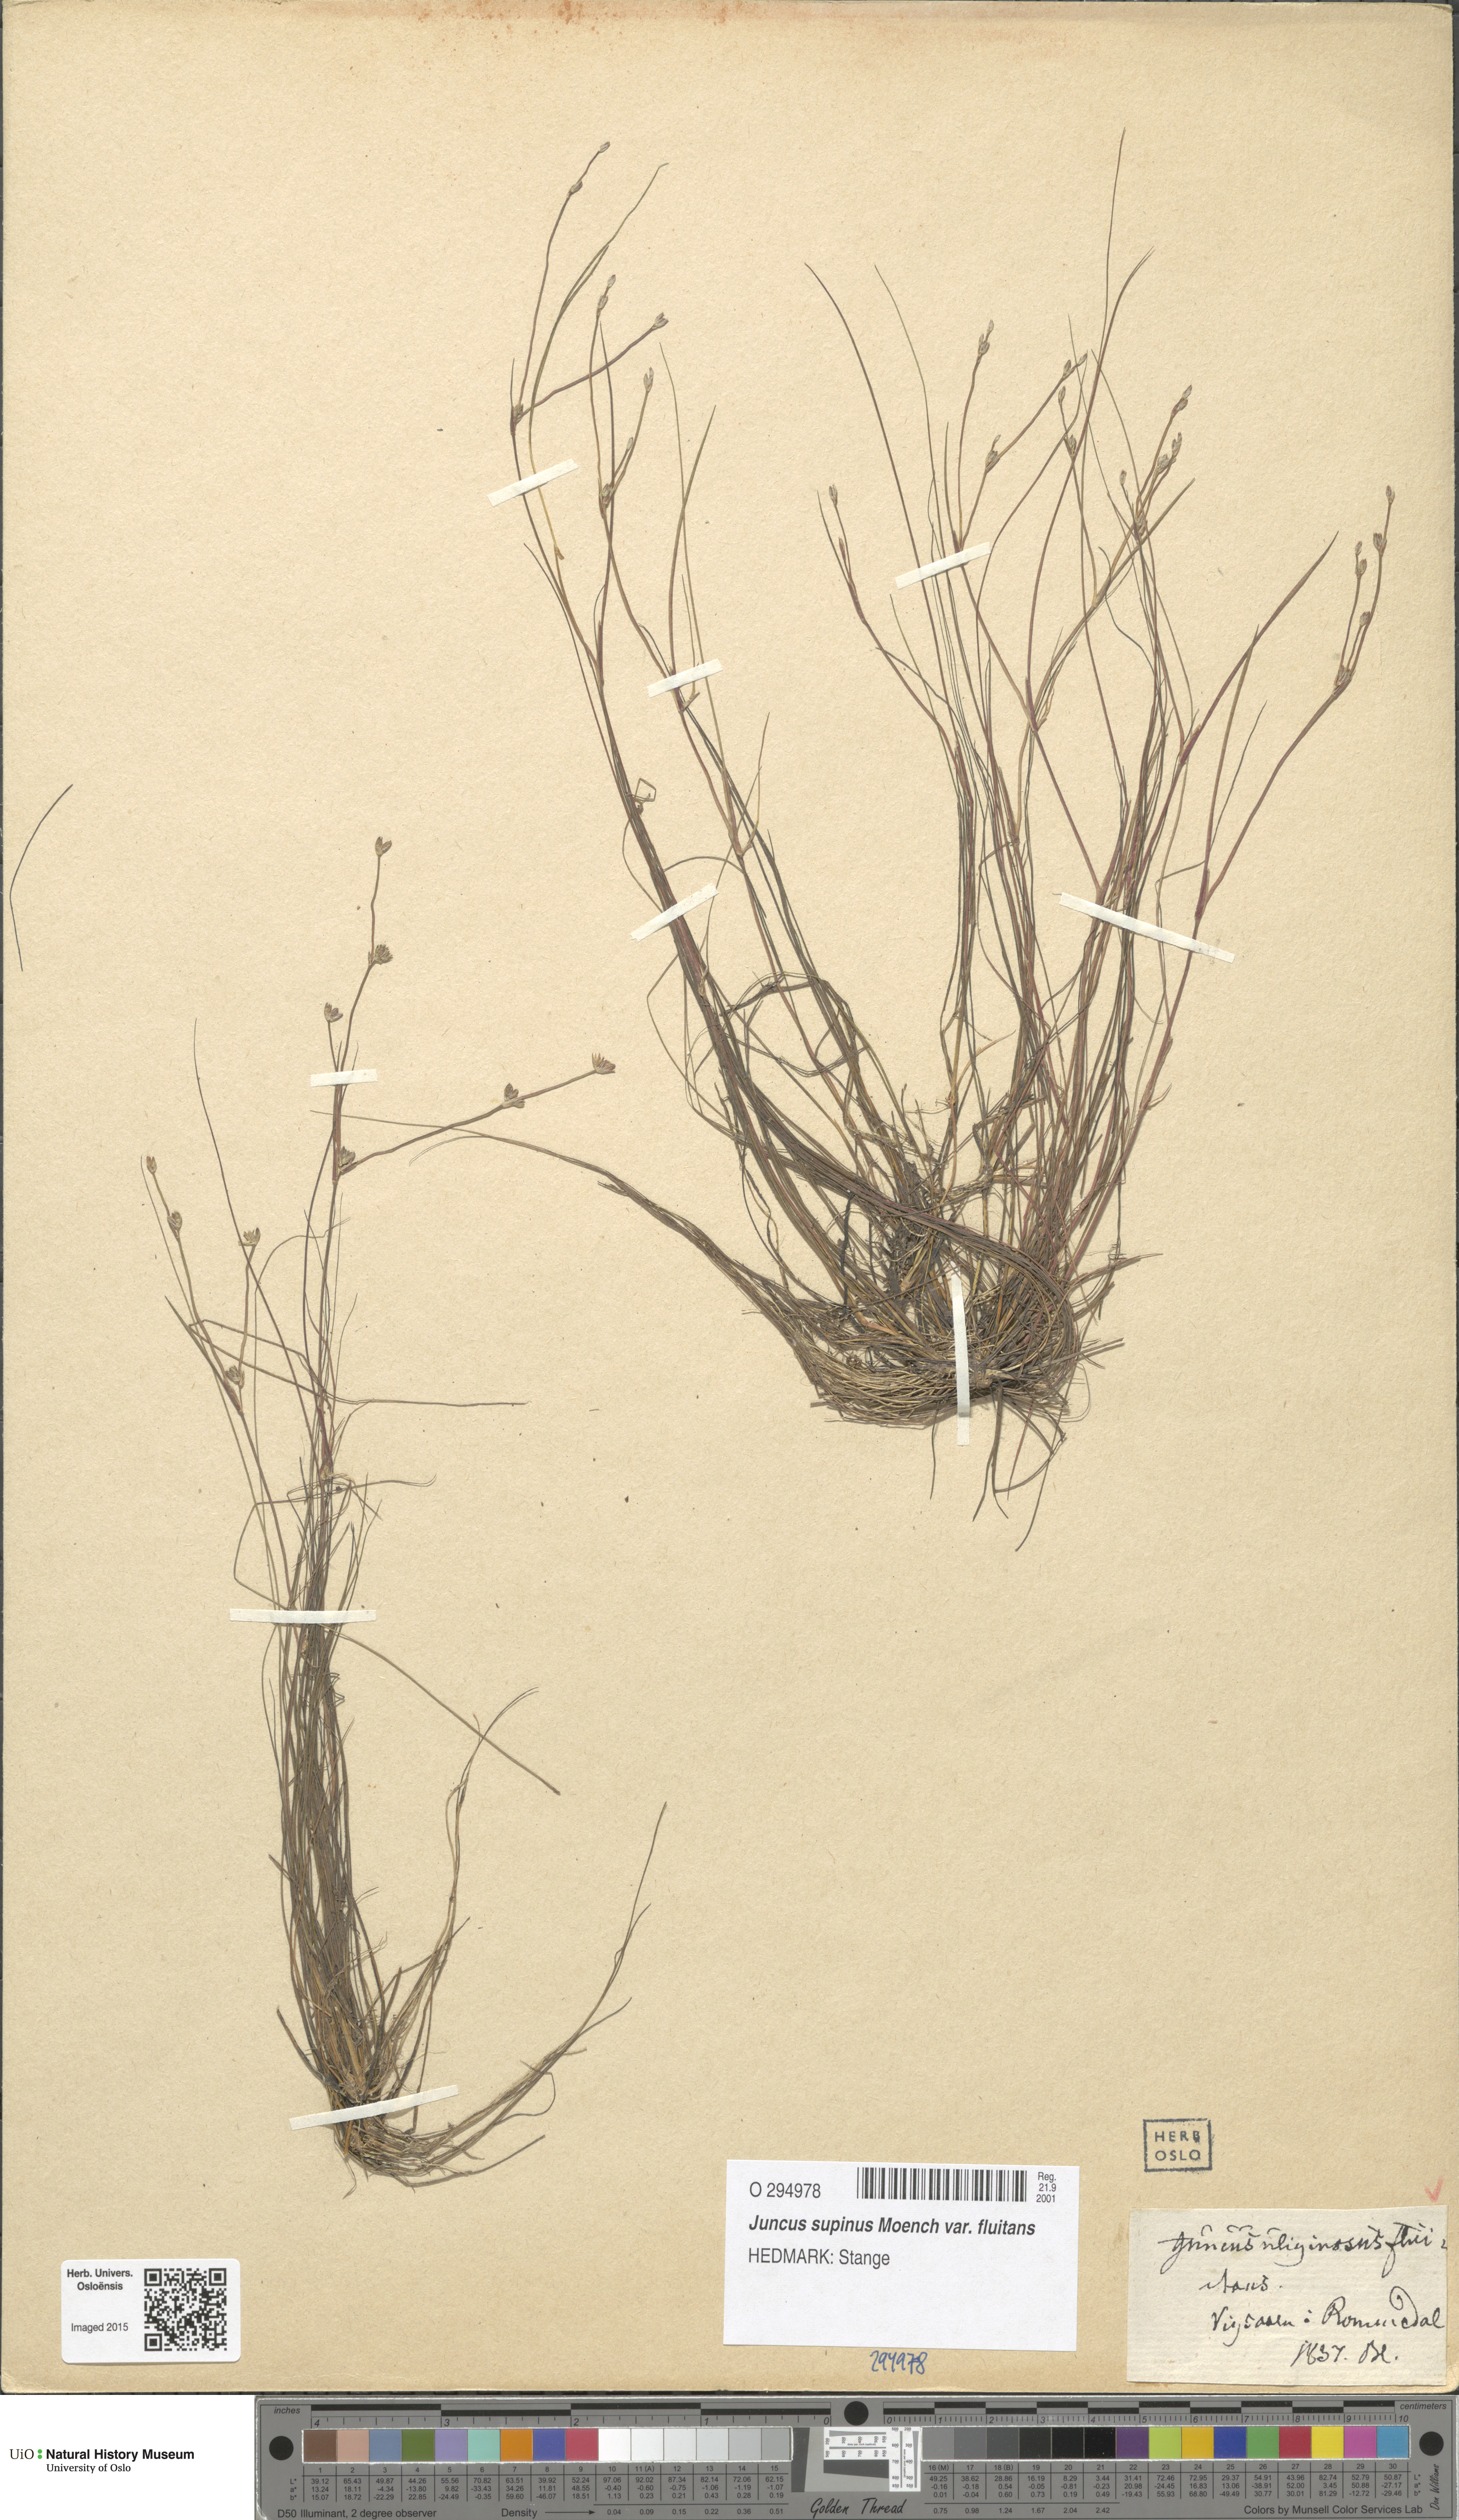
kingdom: Plantae
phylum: Tracheophyta
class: Liliopsida
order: Poales
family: Juncaceae
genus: Juncus
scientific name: Juncus bulbosus
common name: Bulbous rush
